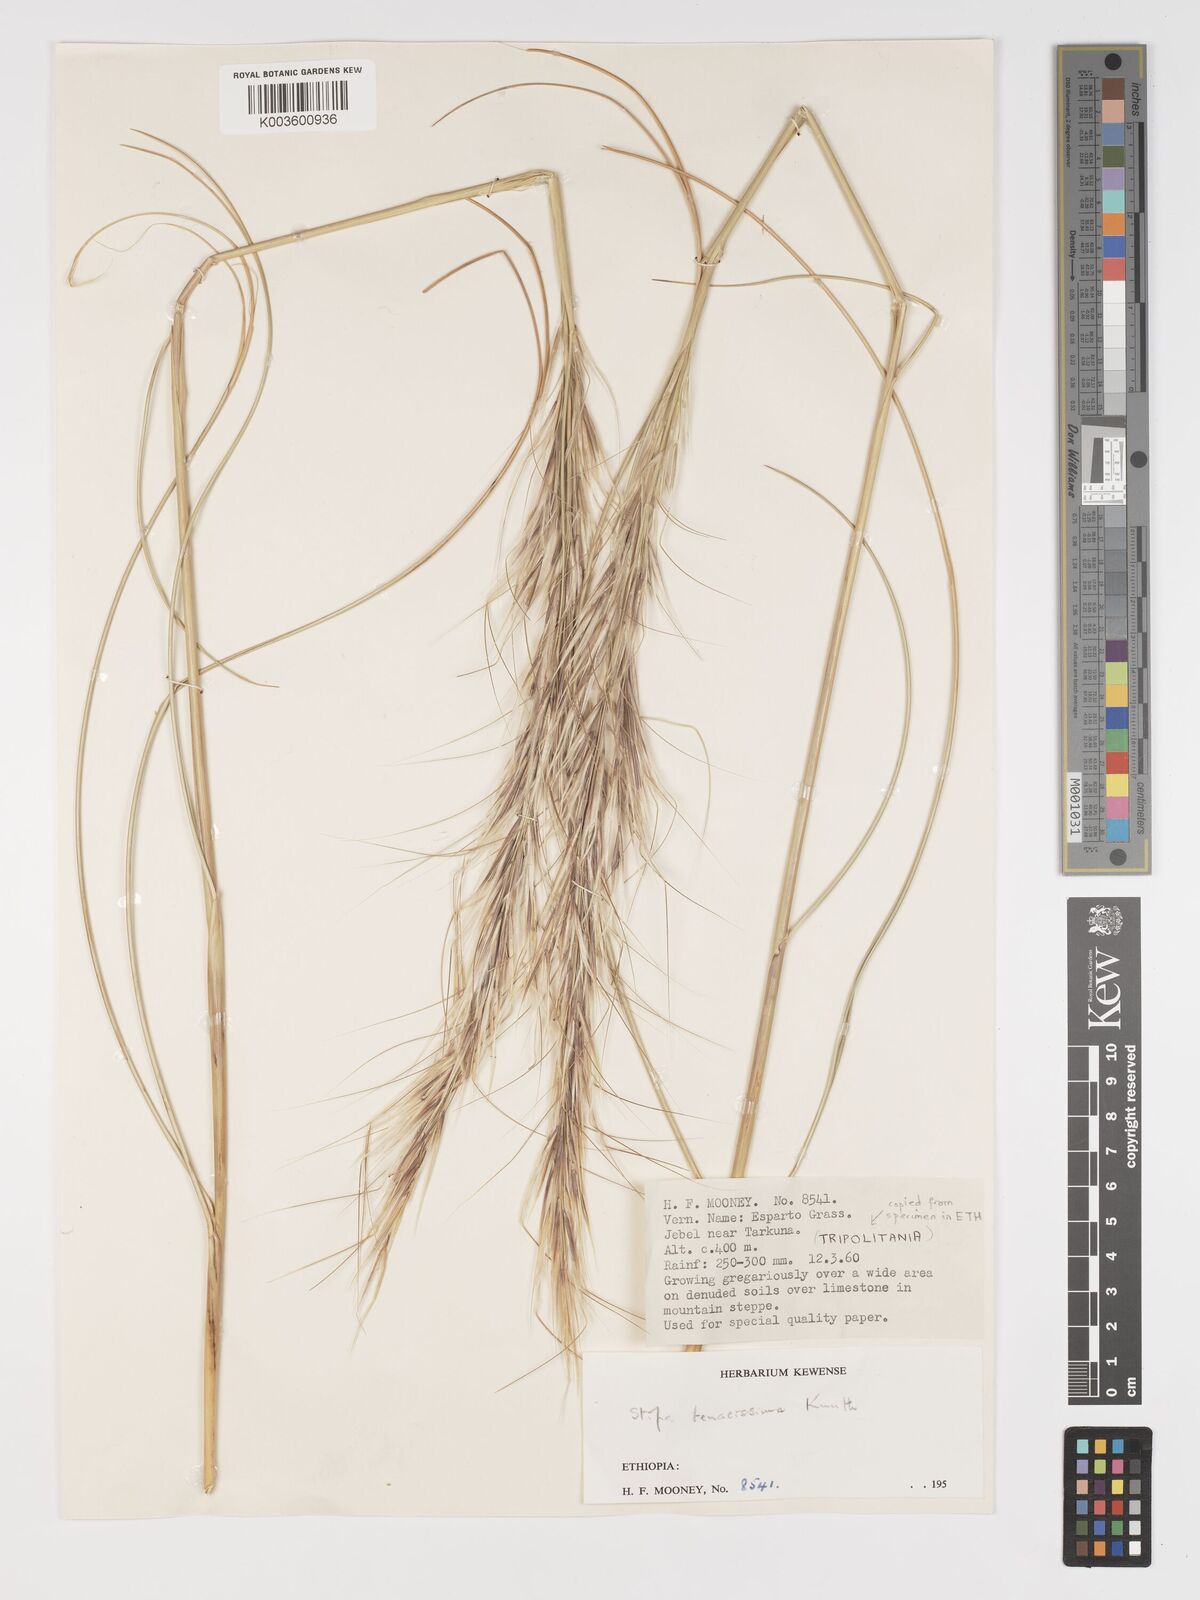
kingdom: Plantae
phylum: Tracheophyta
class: Liliopsida
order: Poales
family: Poaceae
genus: Macrochloa
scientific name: Macrochloa tenacissima
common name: Alfa grass
